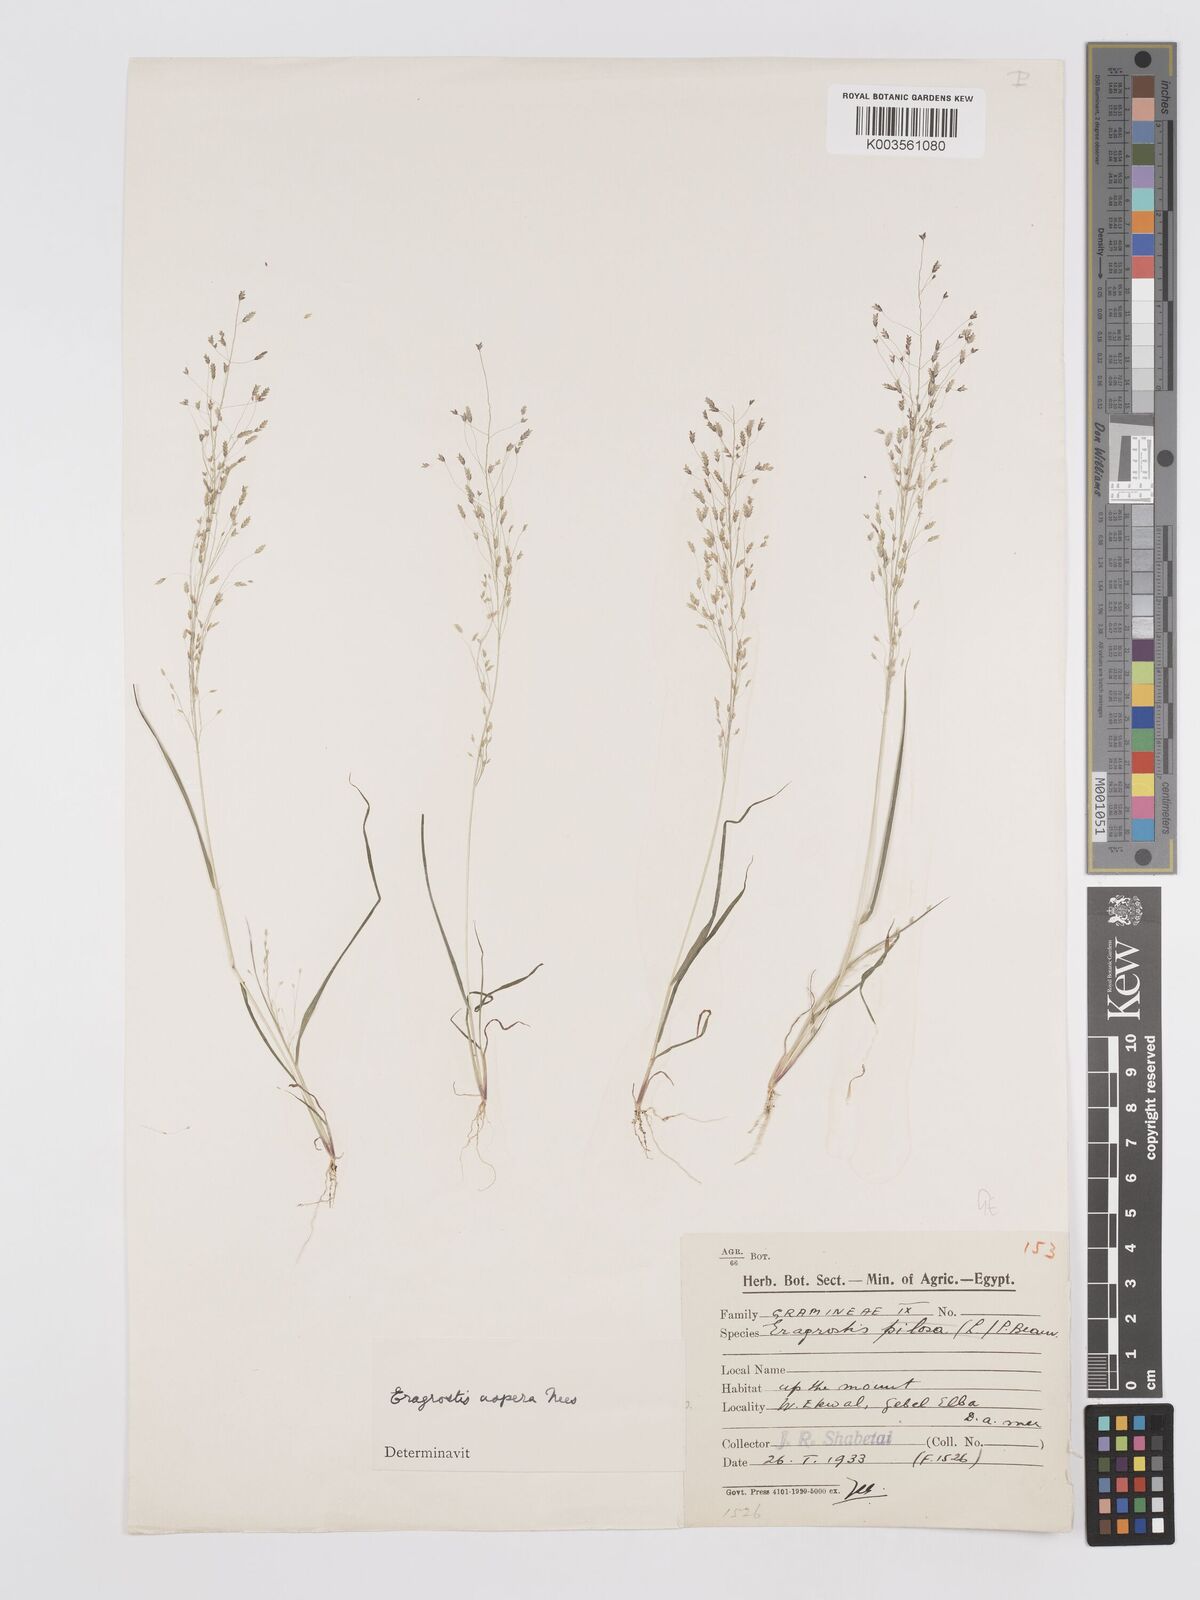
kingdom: Plantae
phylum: Tracheophyta
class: Liliopsida
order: Poales
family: Poaceae
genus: Eragrostis
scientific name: Eragrostis aspera
